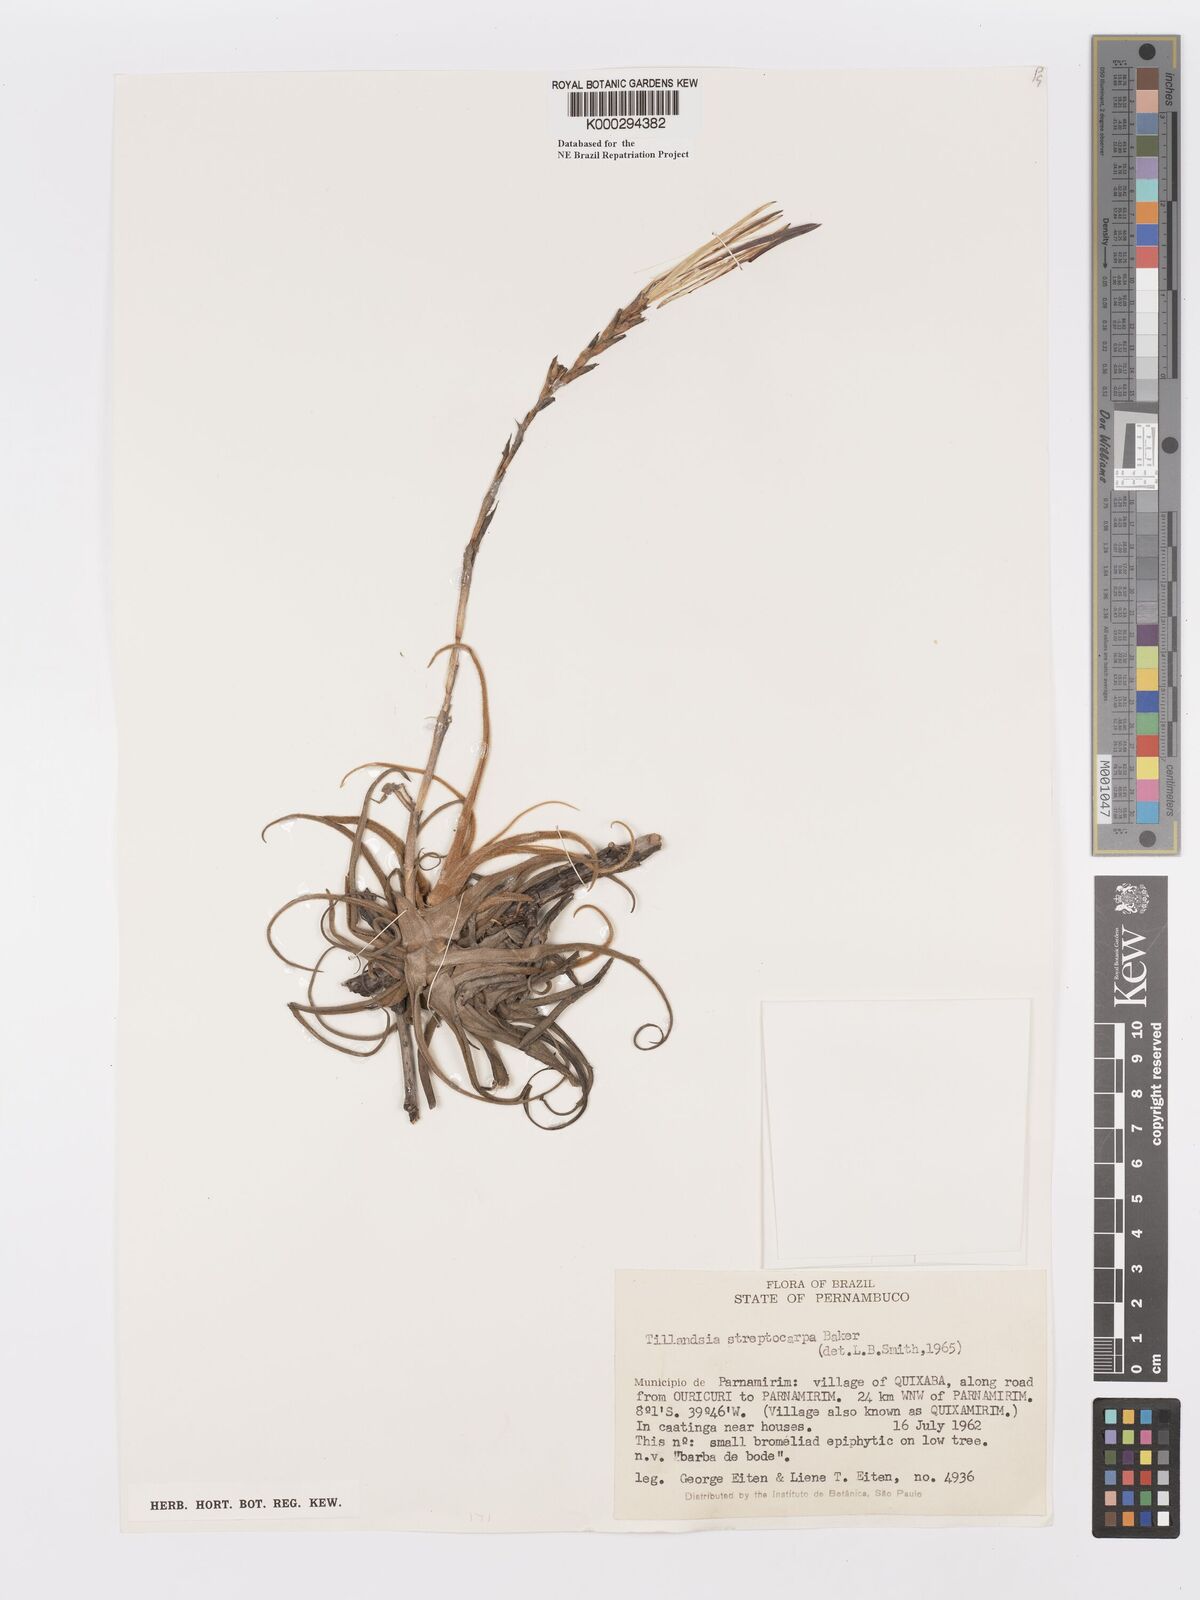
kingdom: Plantae
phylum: Tracheophyta
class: Liliopsida
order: Poales
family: Bromeliaceae
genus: Tillandsia
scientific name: Tillandsia streptocarpa
